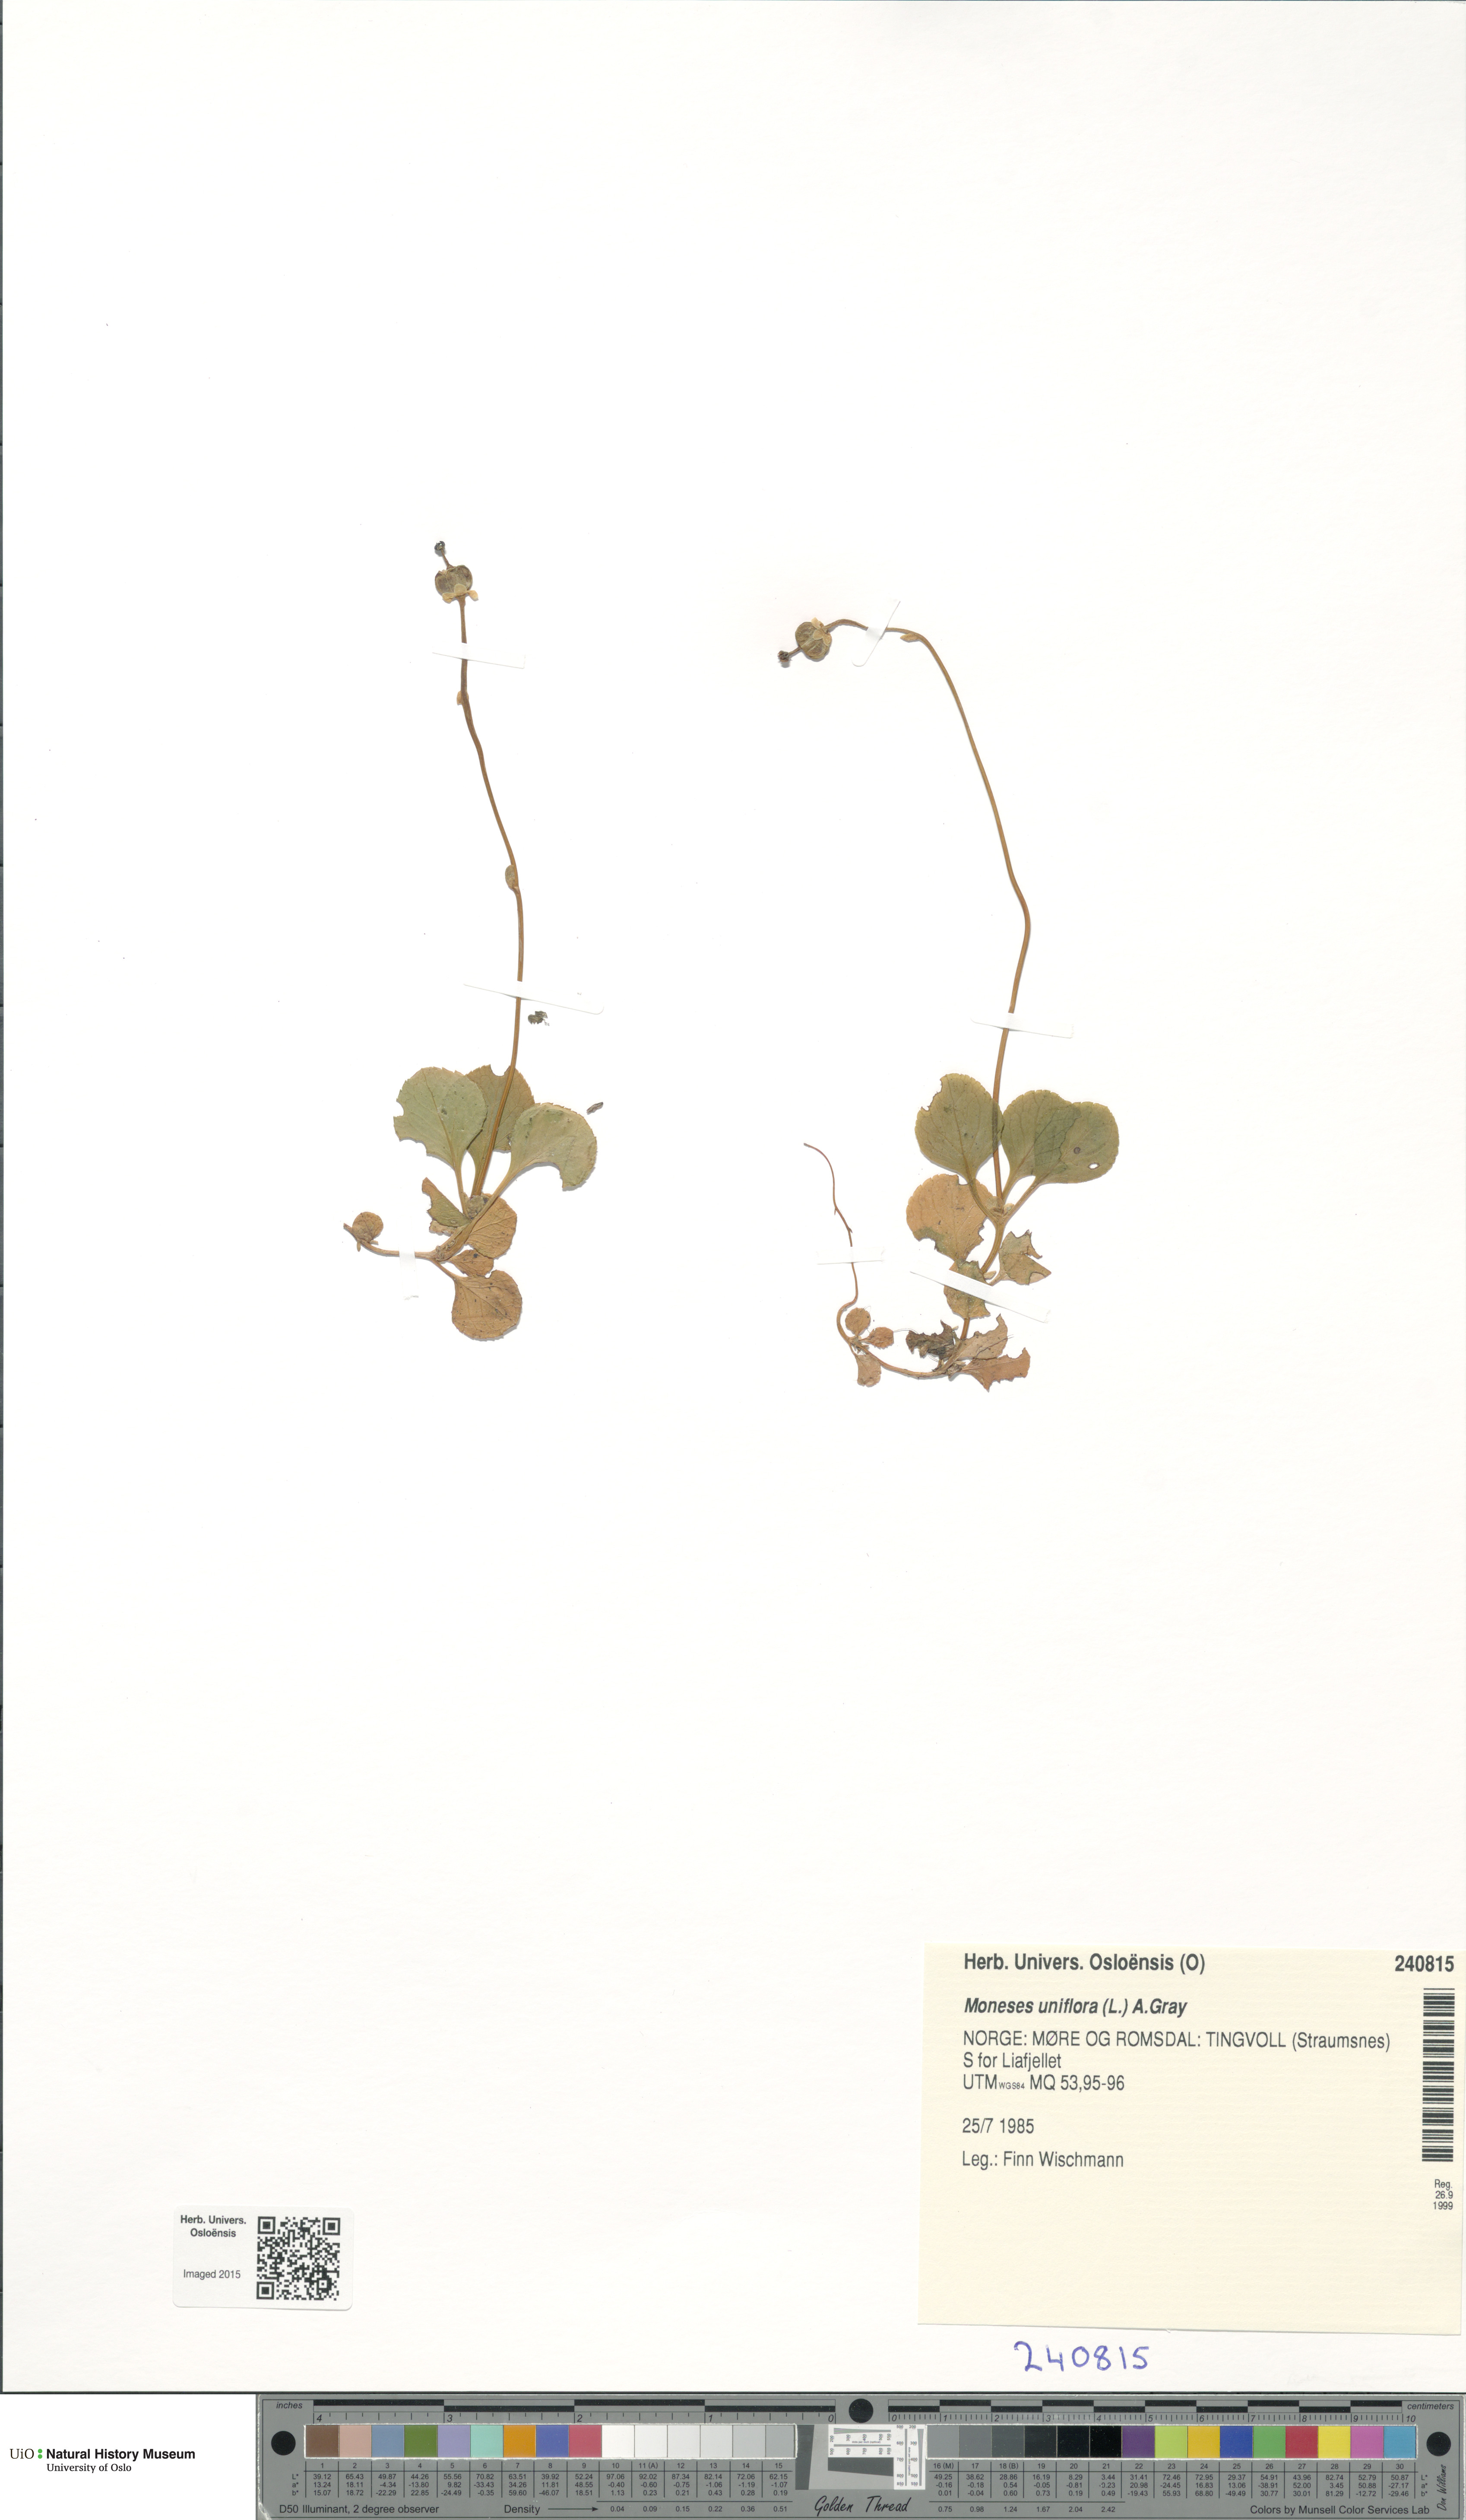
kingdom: Plantae
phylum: Tracheophyta
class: Magnoliopsida
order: Ericales
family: Ericaceae
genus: Moneses
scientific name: Moneses uniflora
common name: One-flowered wintergreen
